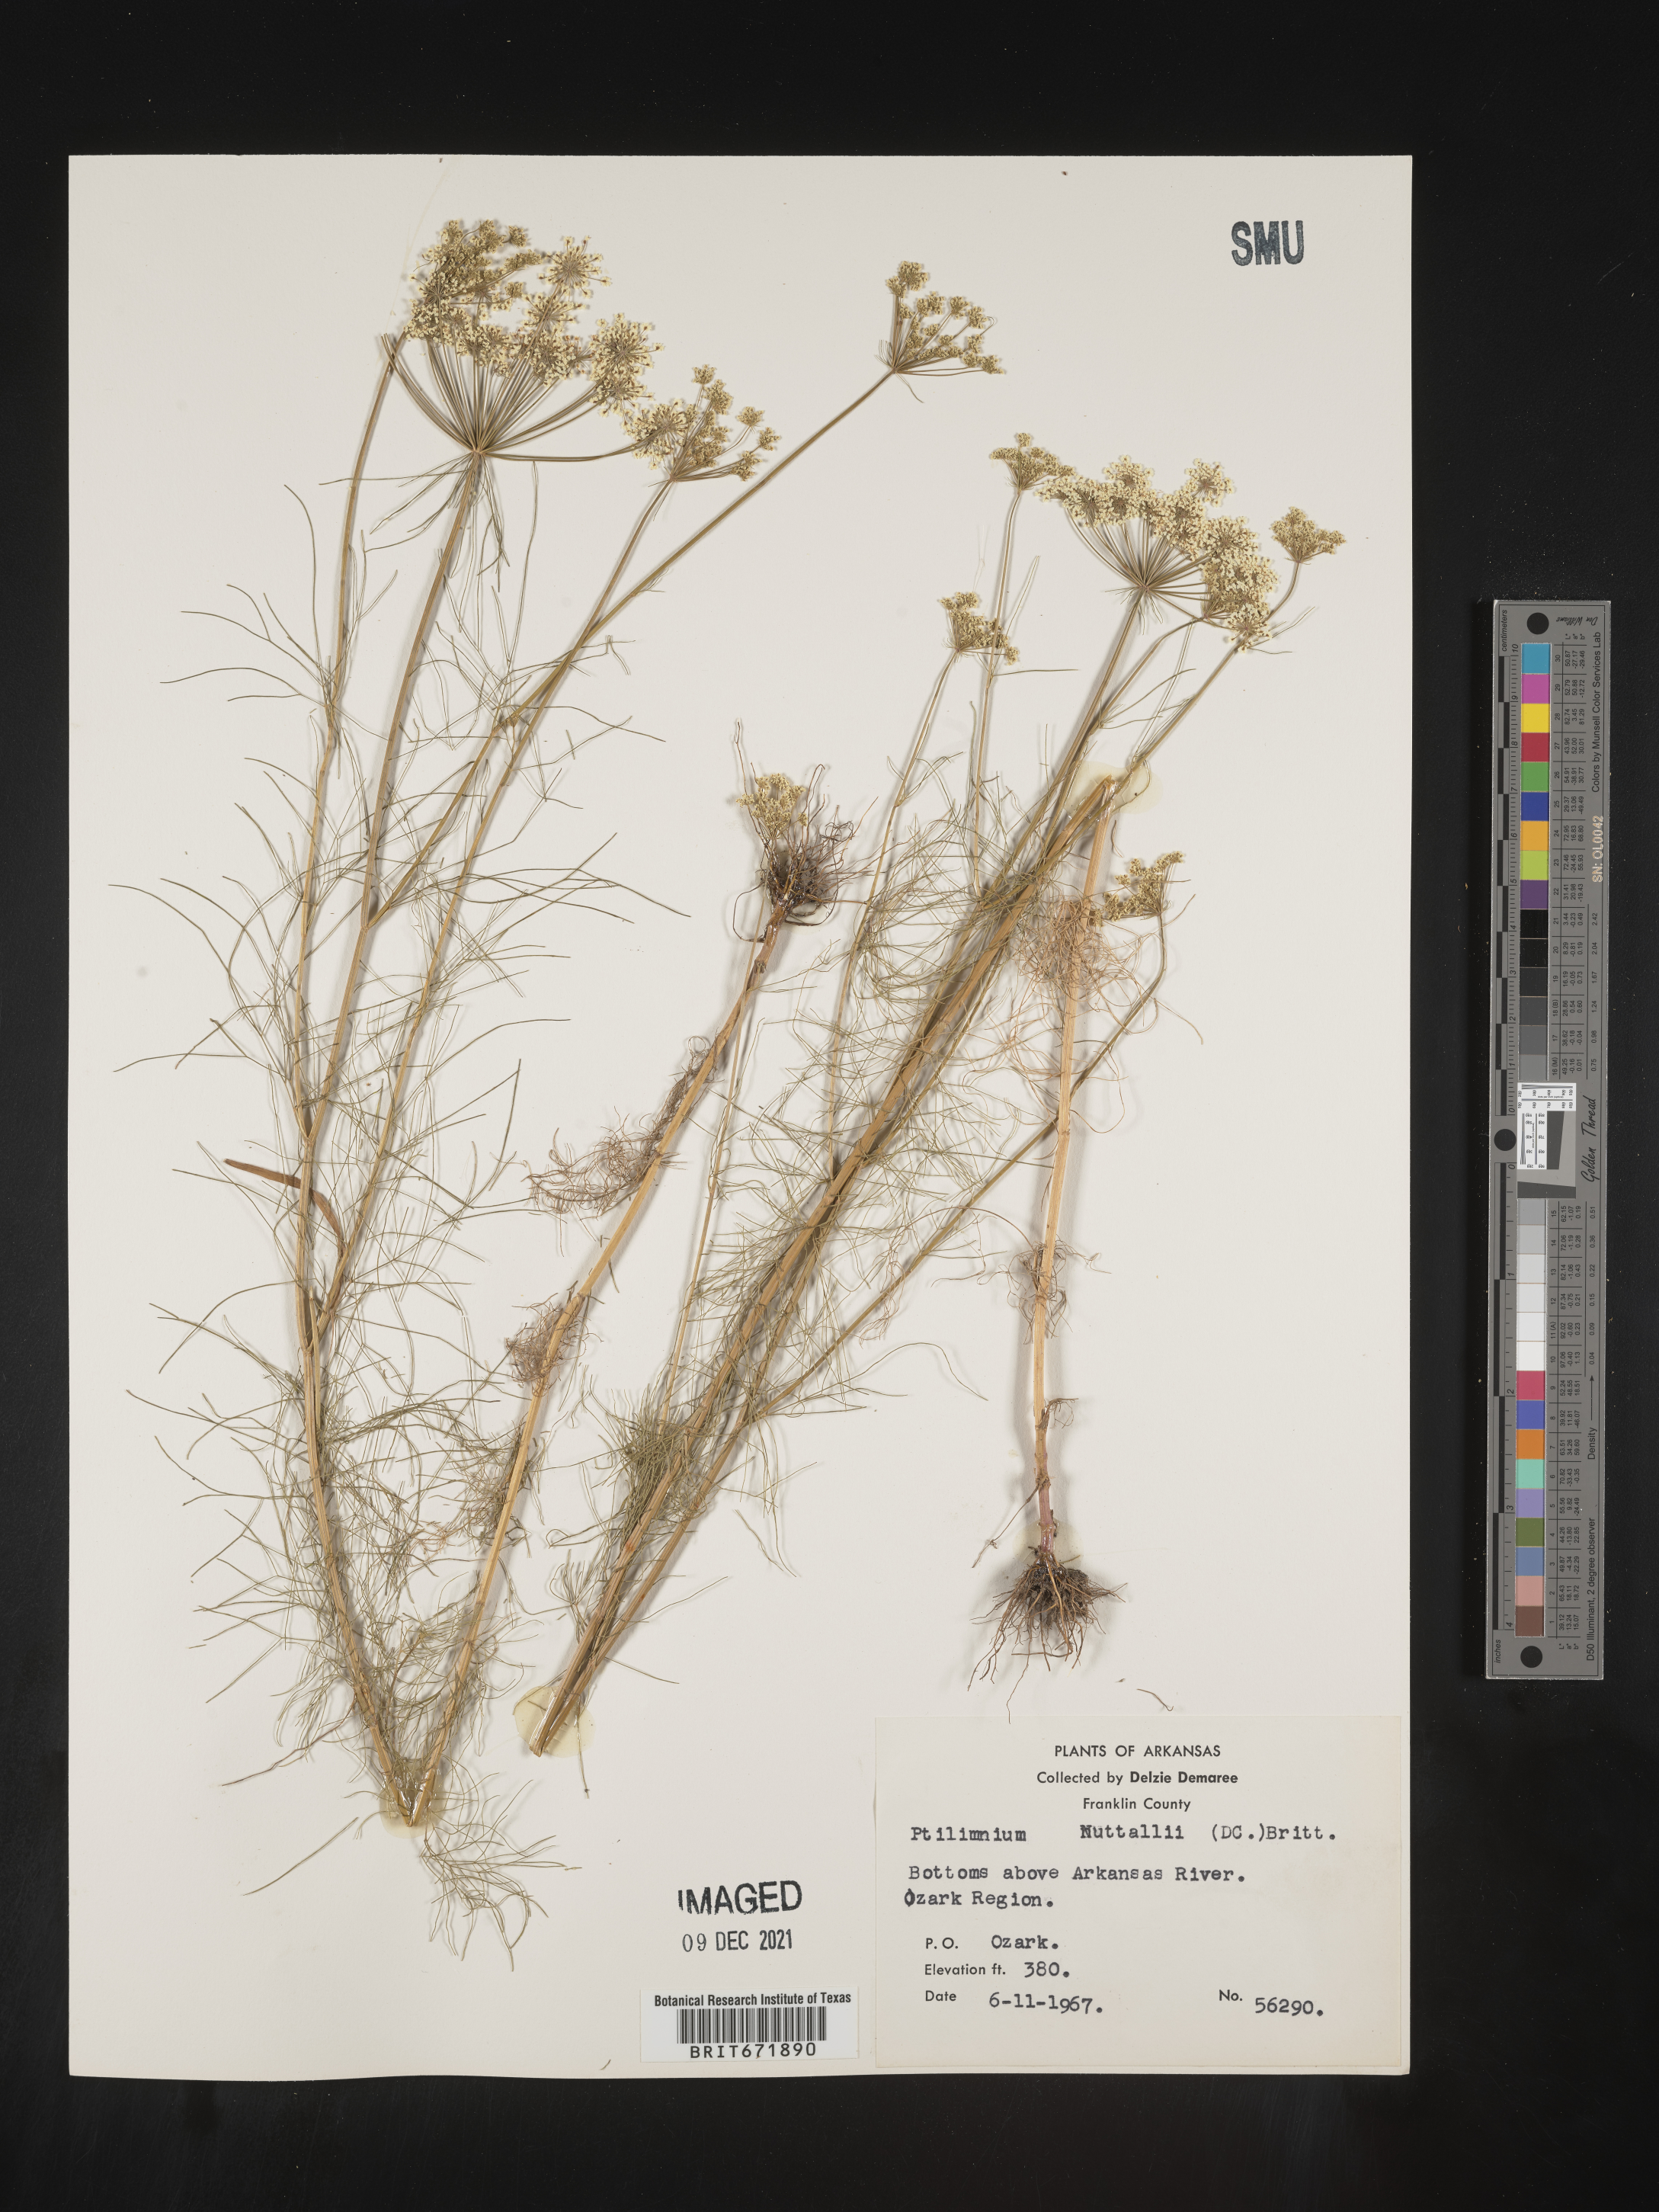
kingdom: Plantae
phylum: Tracheophyta
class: Magnoliopsida
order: Apiales
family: Apiaceae
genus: Ptilimnium
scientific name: Ptilimnium nuttallii
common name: Ozark bishop's-weed
